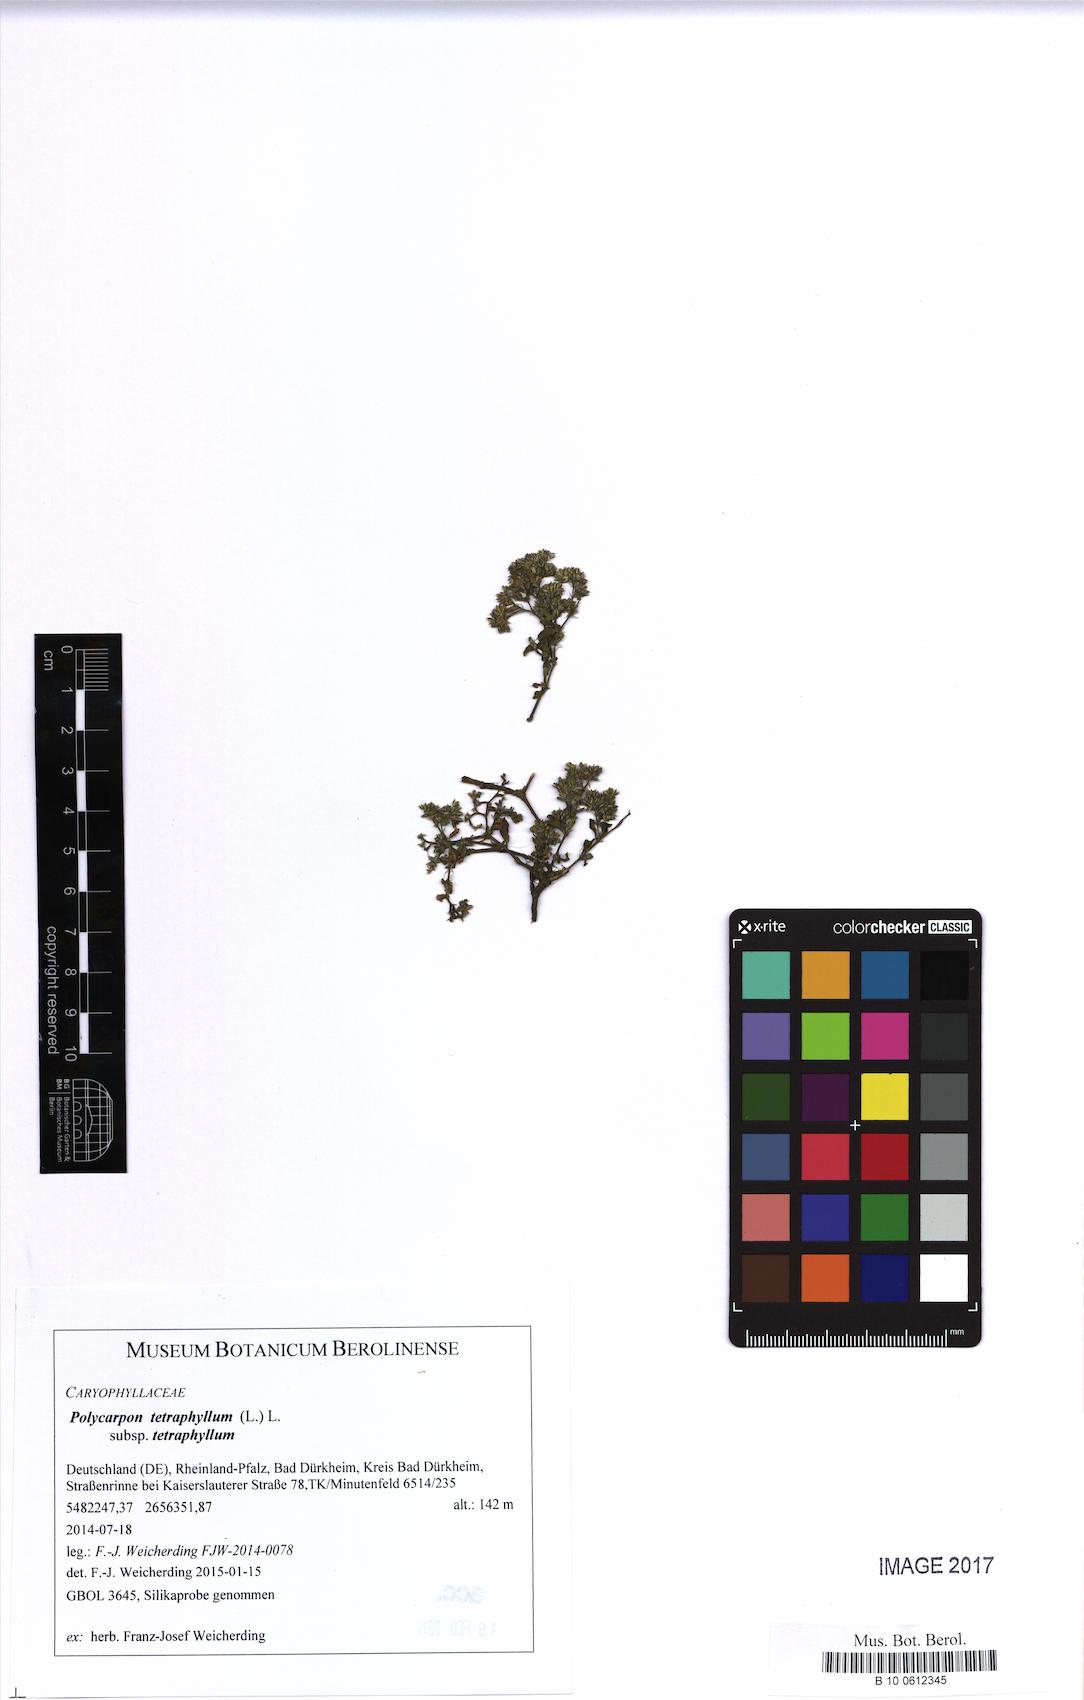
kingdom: Plantae
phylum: Tracheophyta
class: Magnoliopsida
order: Caryophyllales
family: Caryophyllaceae
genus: Polycarpon
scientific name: Polycarpon tetraphyllum
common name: Four-leaved all-seed
